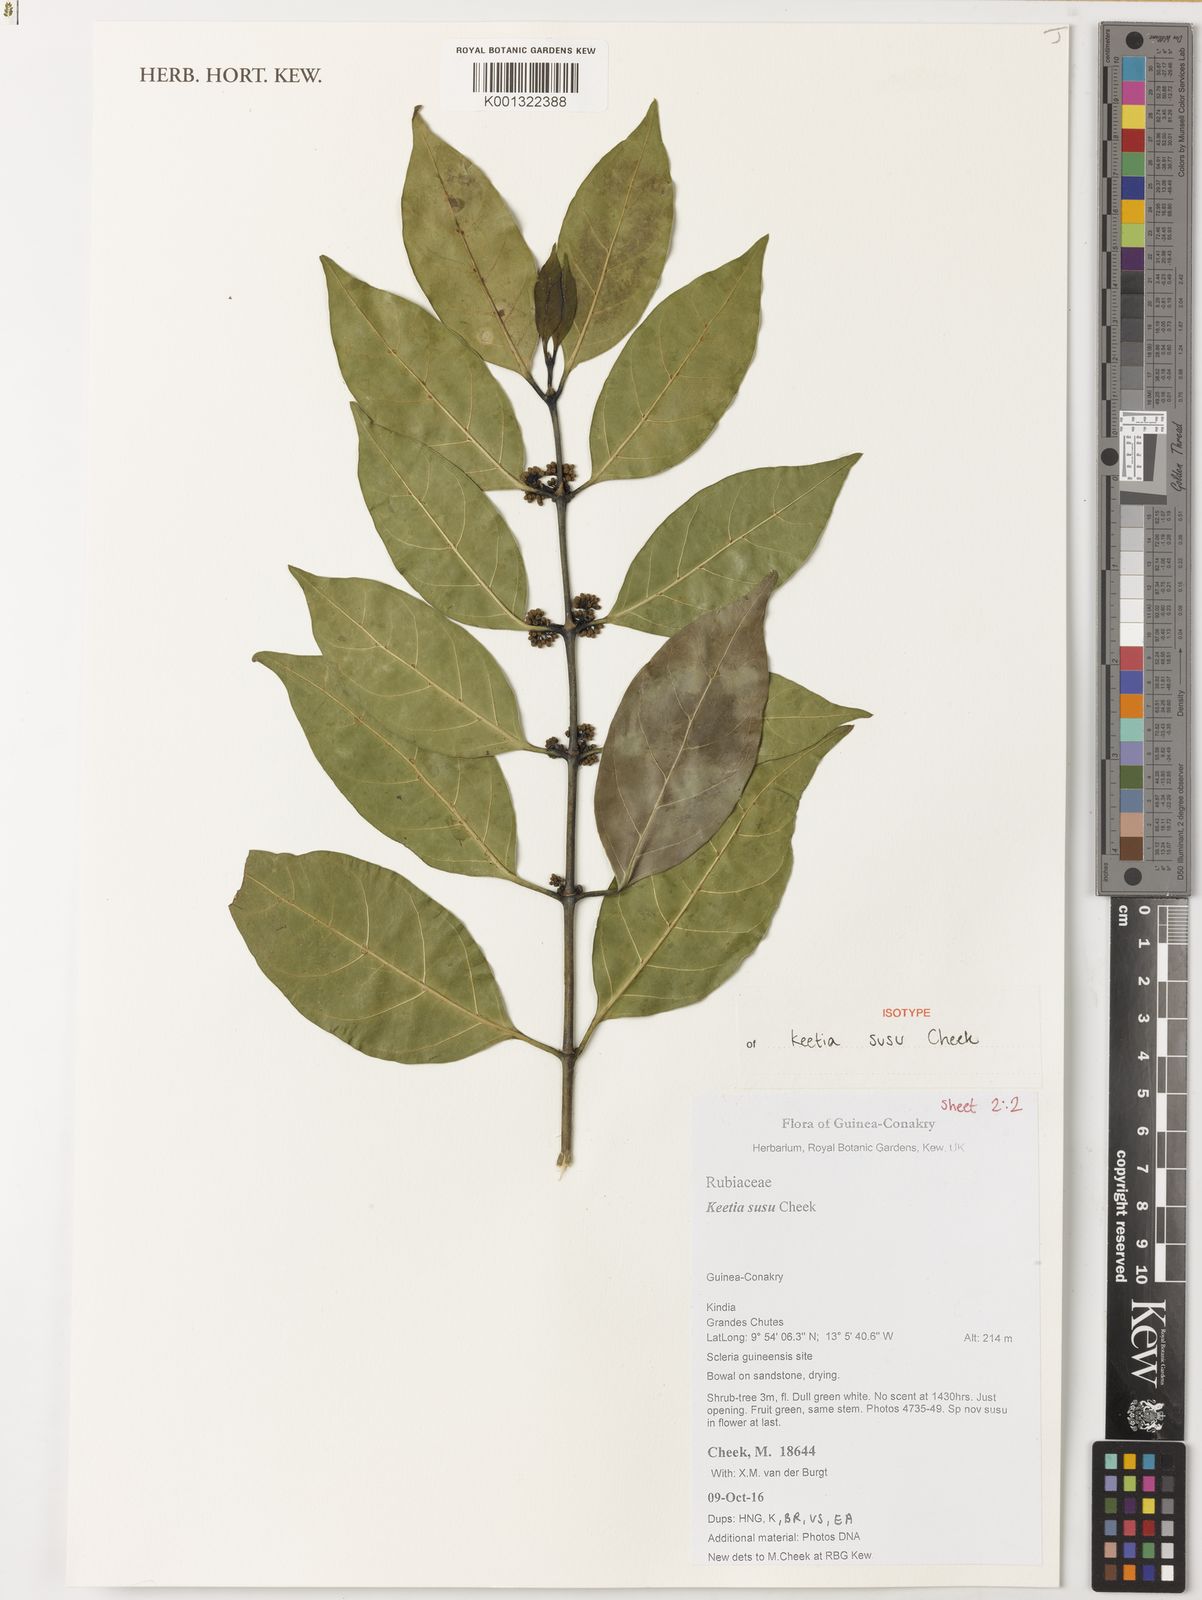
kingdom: Plantae
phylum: Tracheophyta
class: Magnoliopsida
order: Gentianales
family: Rubiaceae
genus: Keetia
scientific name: Keetia susu
